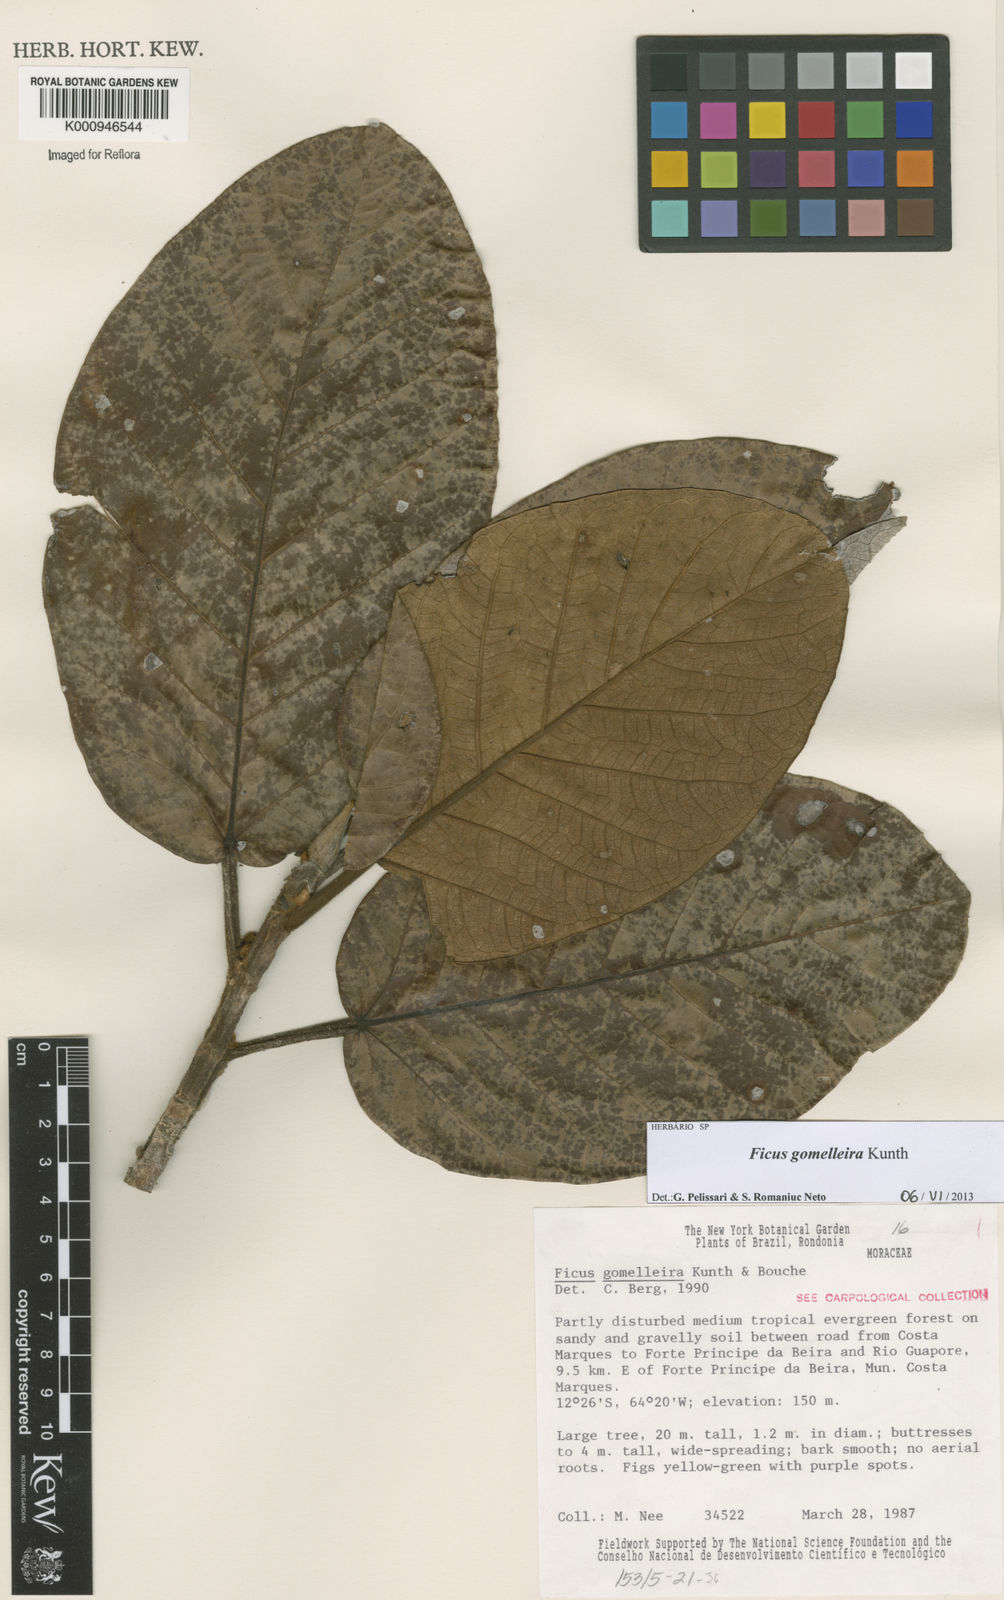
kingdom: Plantae
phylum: Tracheophyta
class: Magnoliopsida
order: Rosales
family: Moraceae
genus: Ficus
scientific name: Ficus gomelleira
